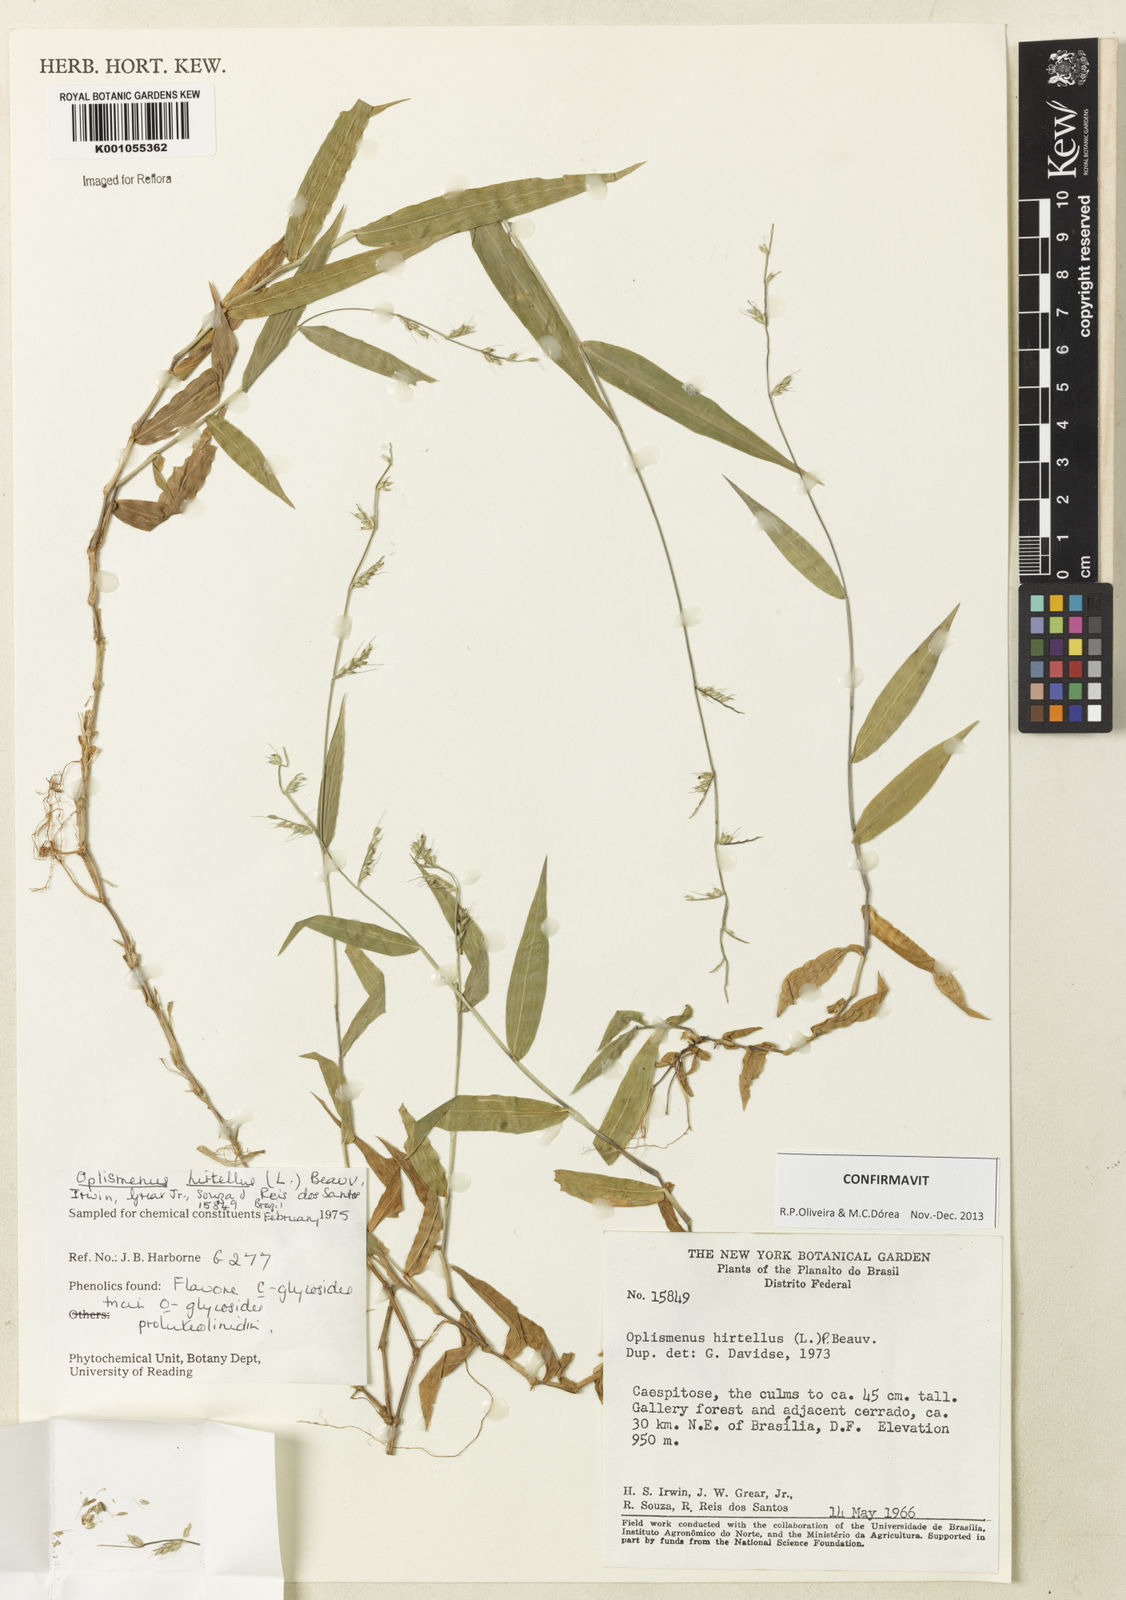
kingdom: Plantae
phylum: Tracheophyta
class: Liliopsida
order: Poales
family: Poaceae
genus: Oplismenus
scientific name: Oplismenus hirtellus
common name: Basketgrass
